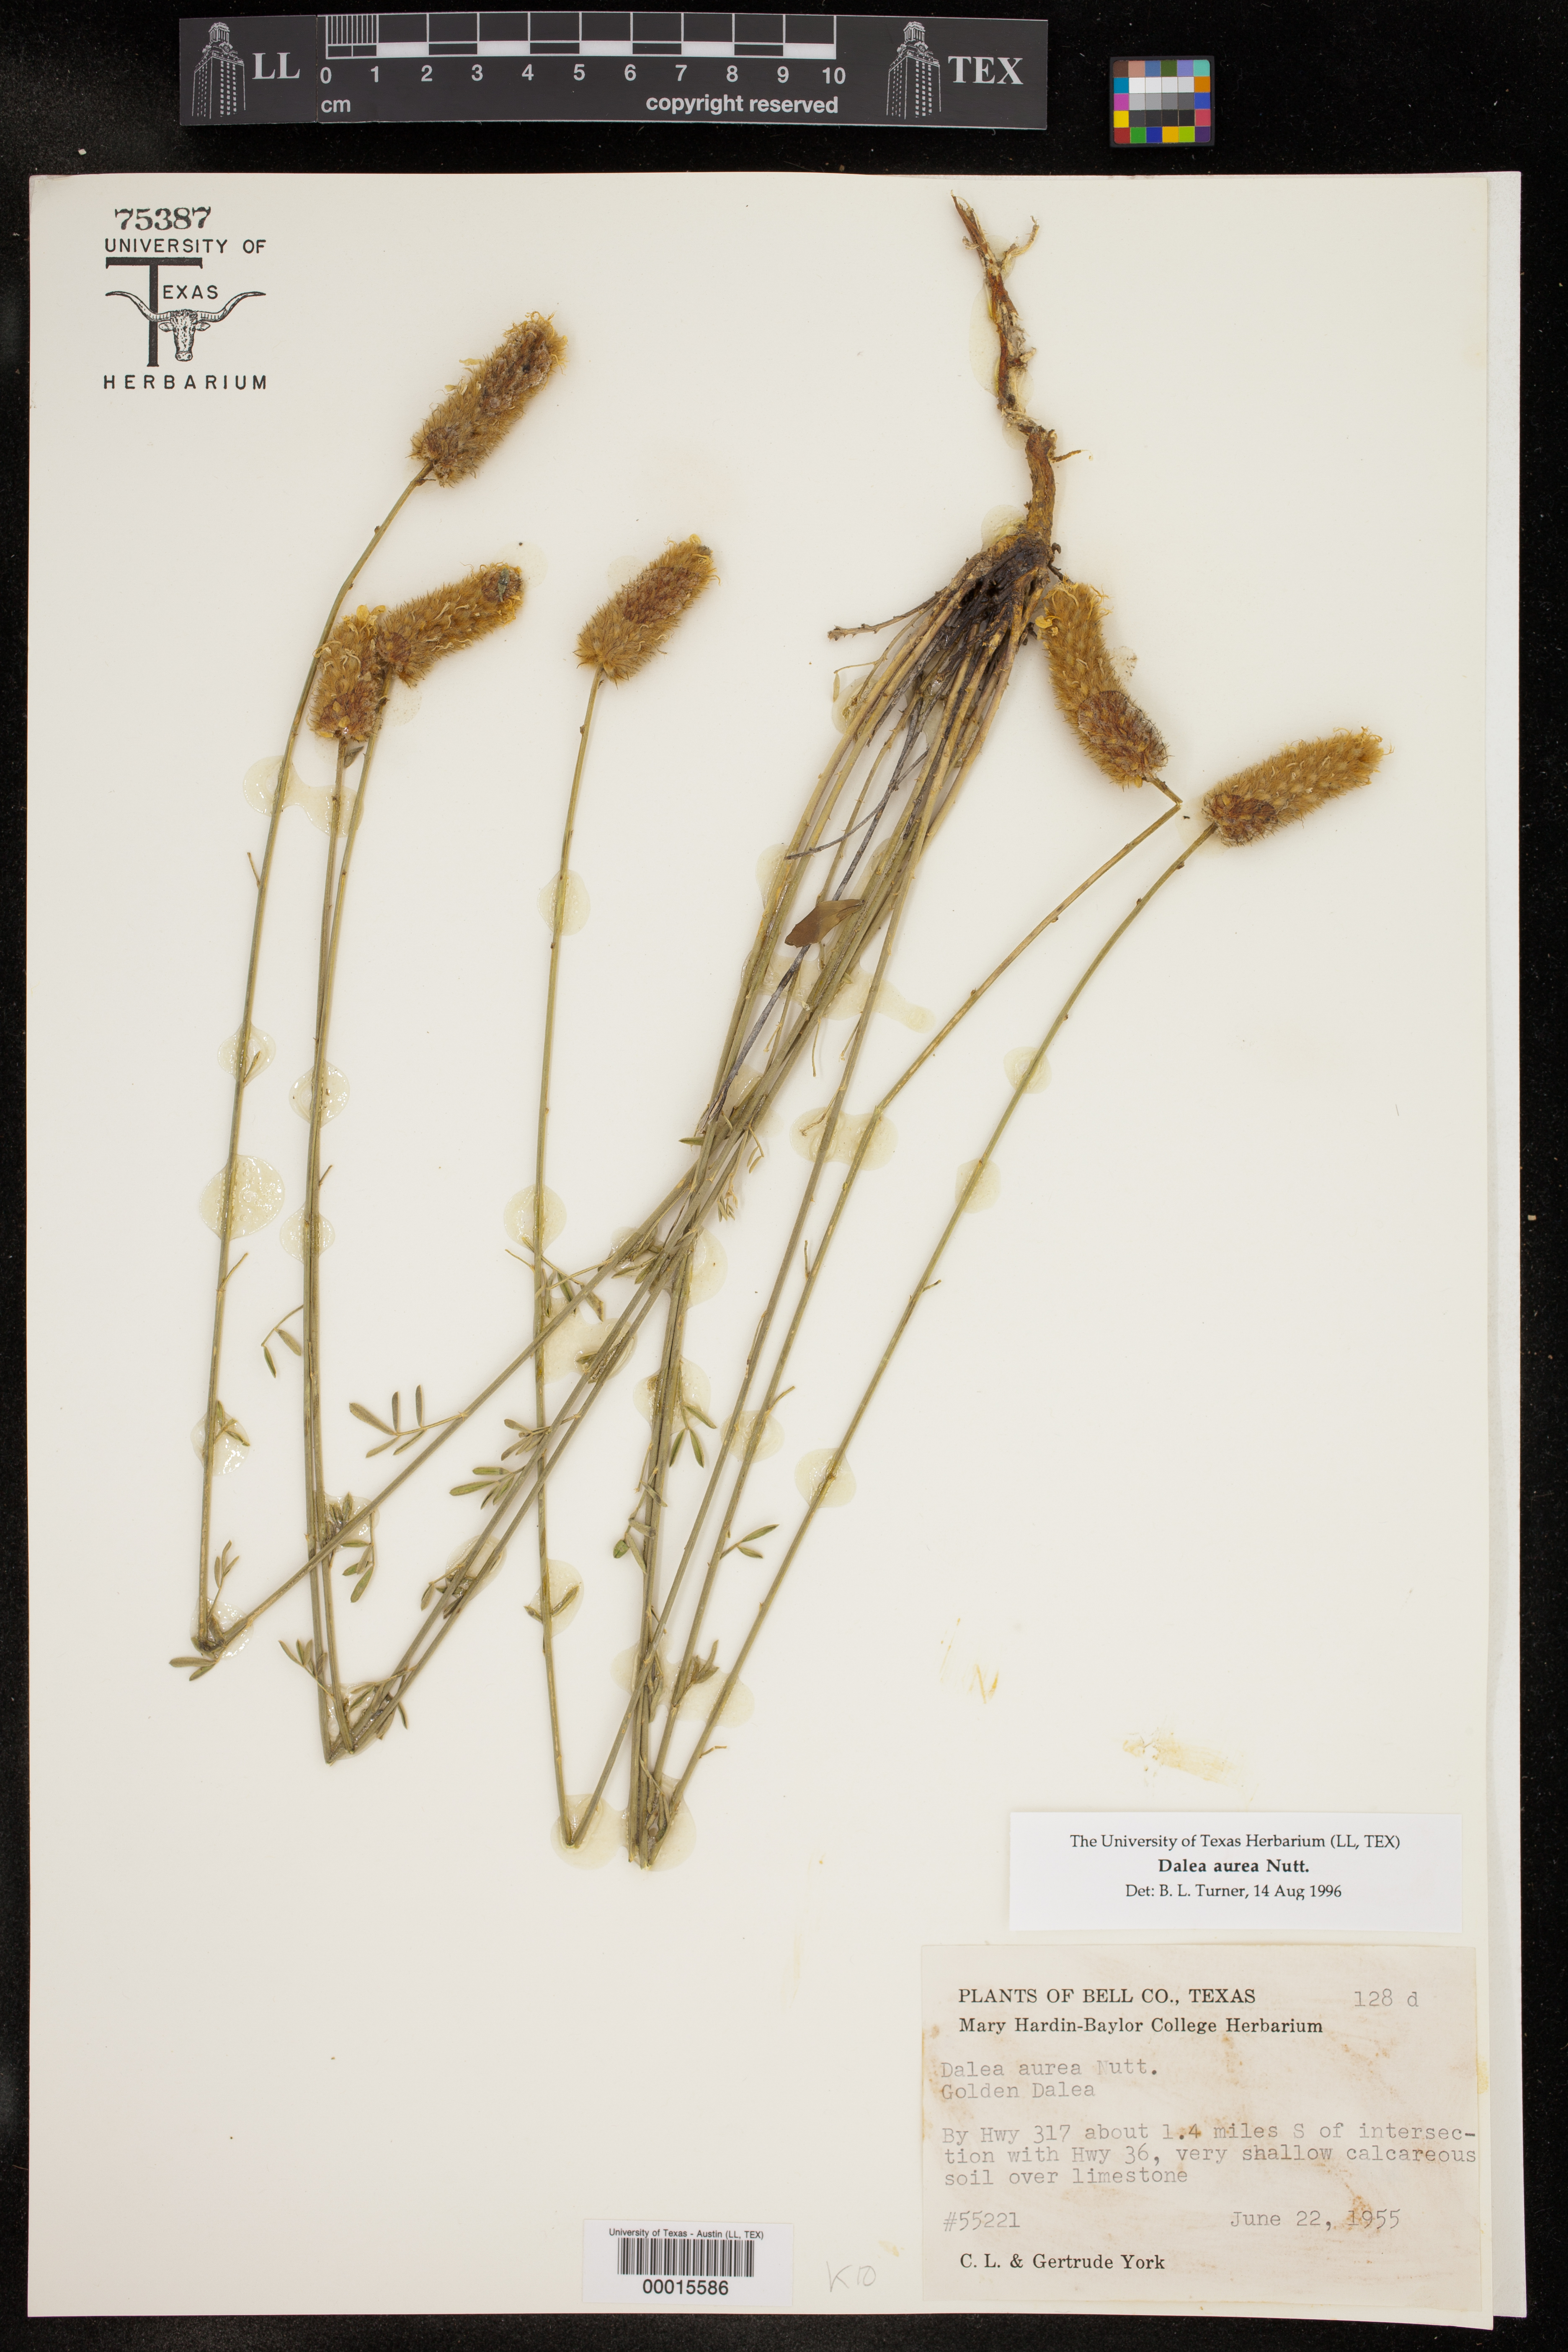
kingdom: Plantae
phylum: Tracheophyta
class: Magnoliopsida
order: Fabales
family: Fabaceae
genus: Dalea
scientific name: Dalea aurea
